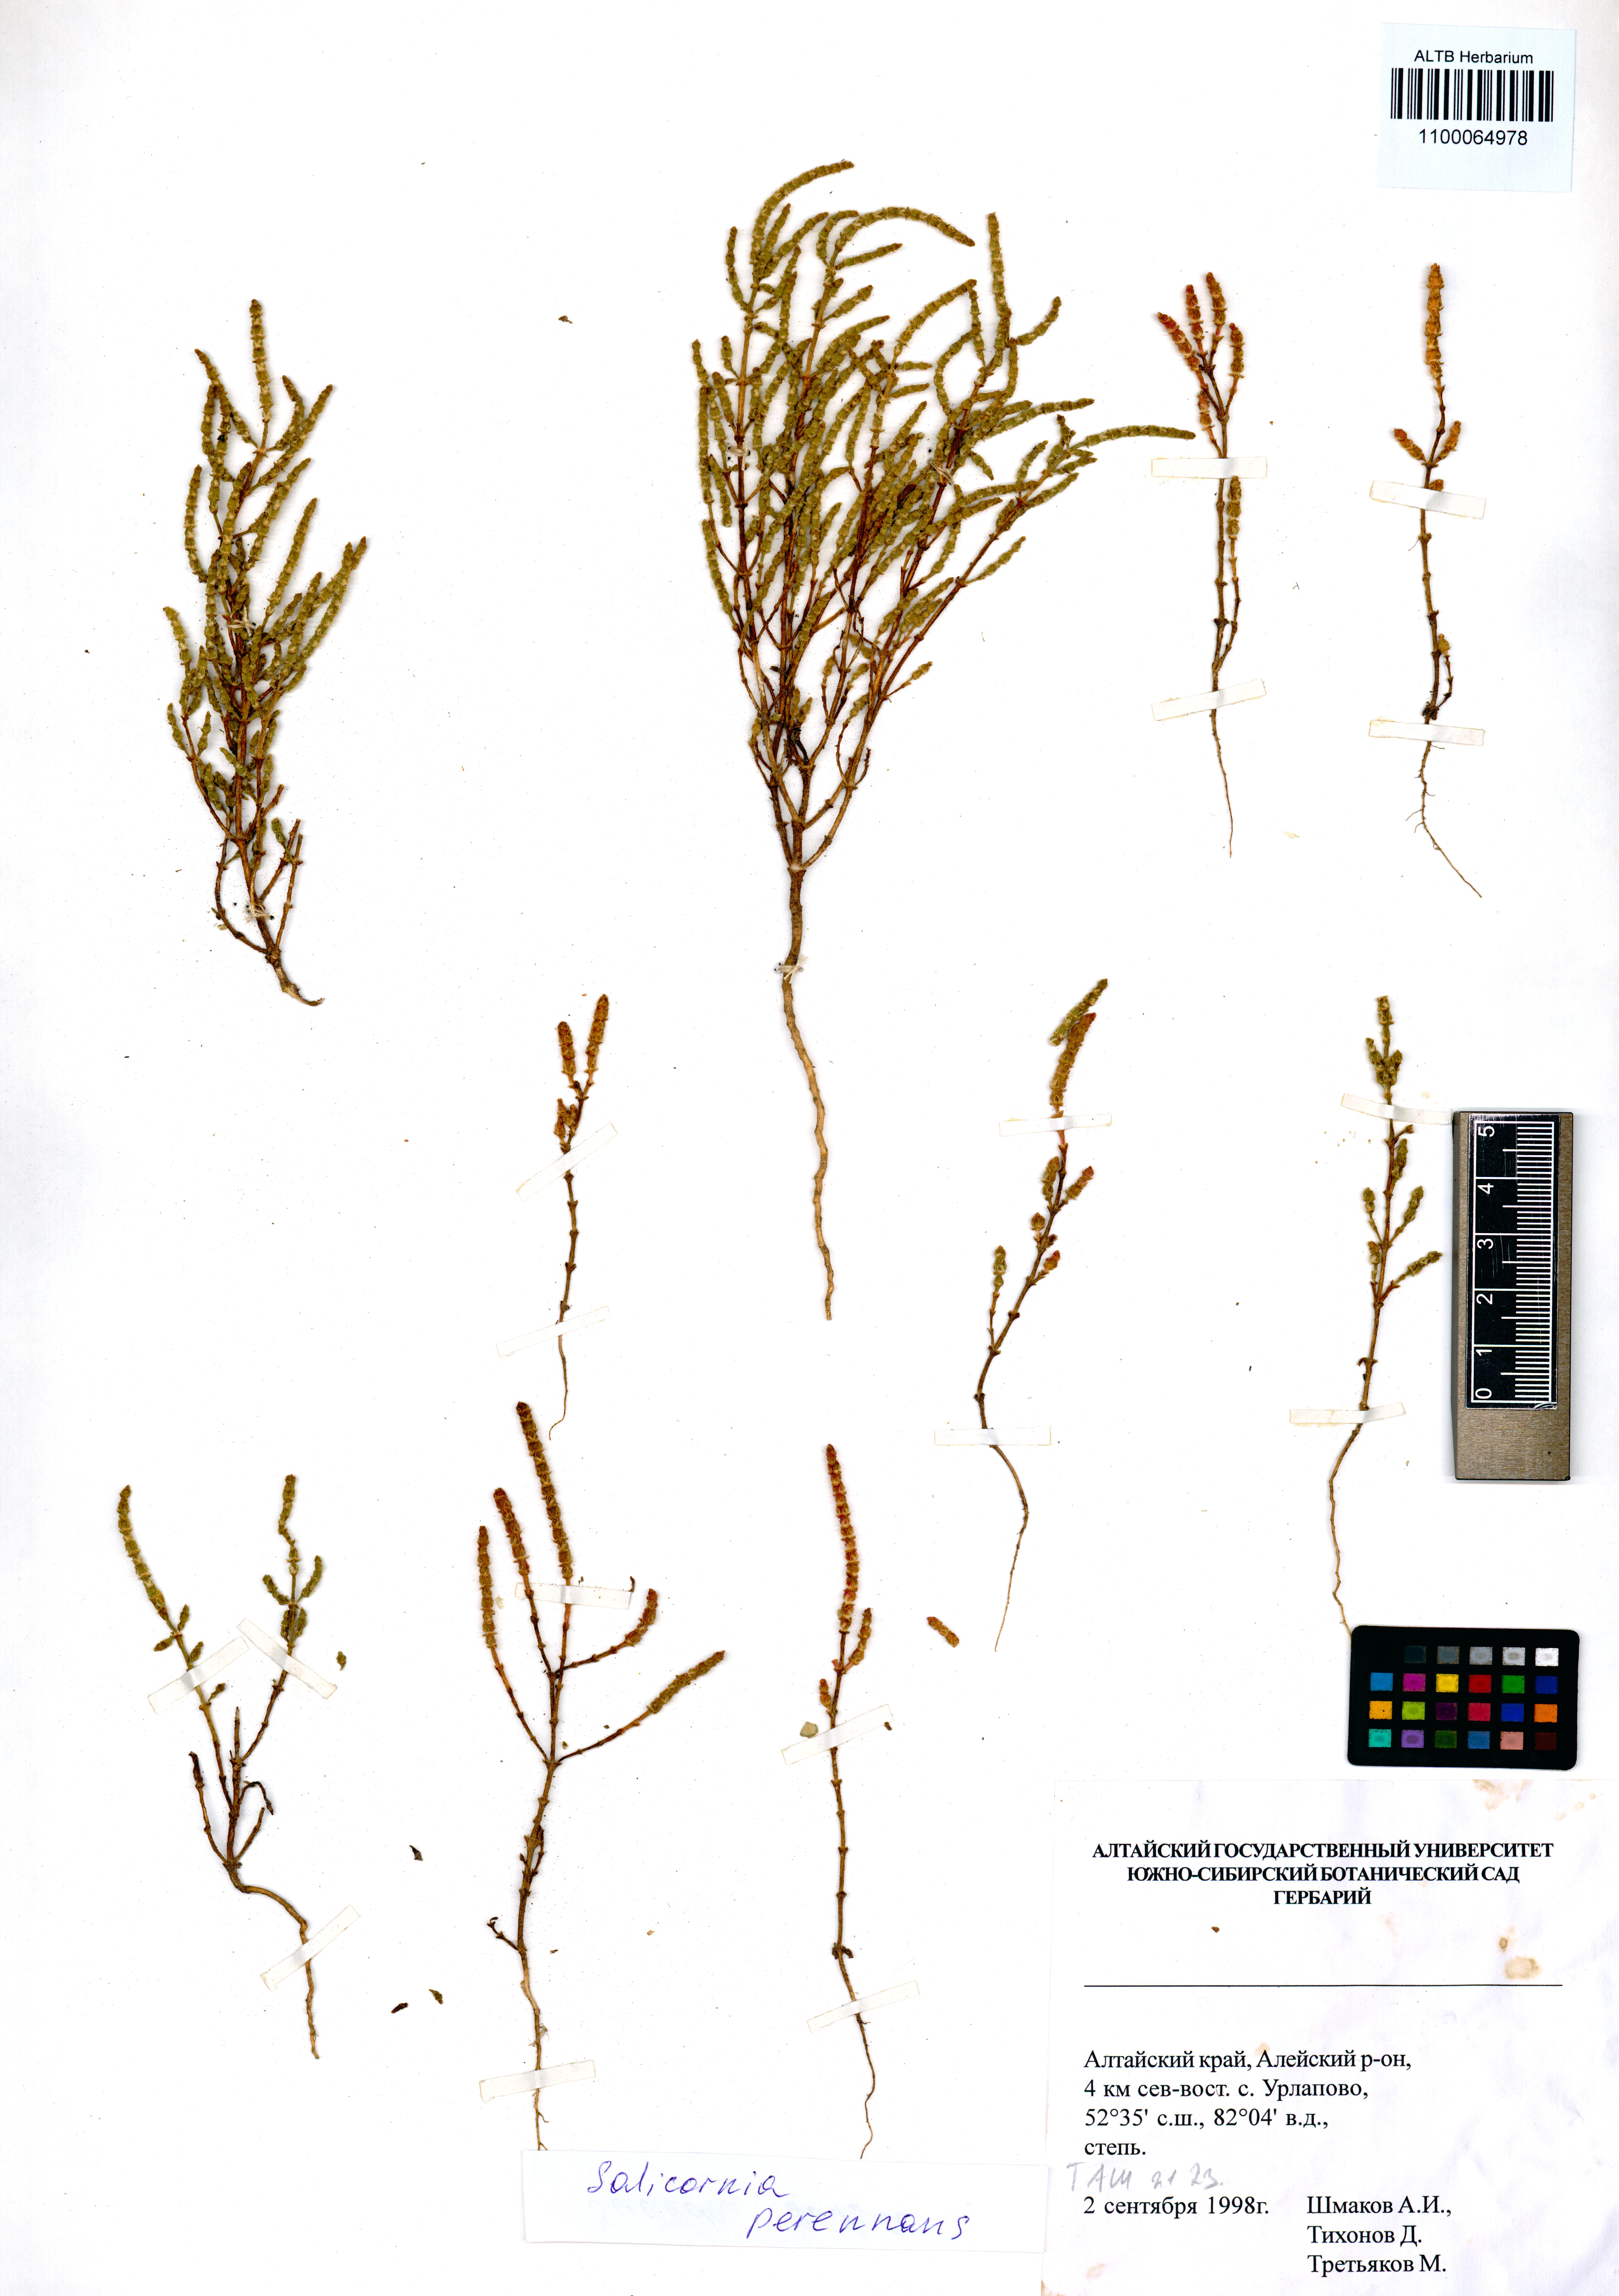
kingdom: Plantae
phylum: Tracheophyta
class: Magnoliopsida
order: Caryophyllales
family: Amaranthaceae
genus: Salicornia
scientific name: Salicornia perennans
